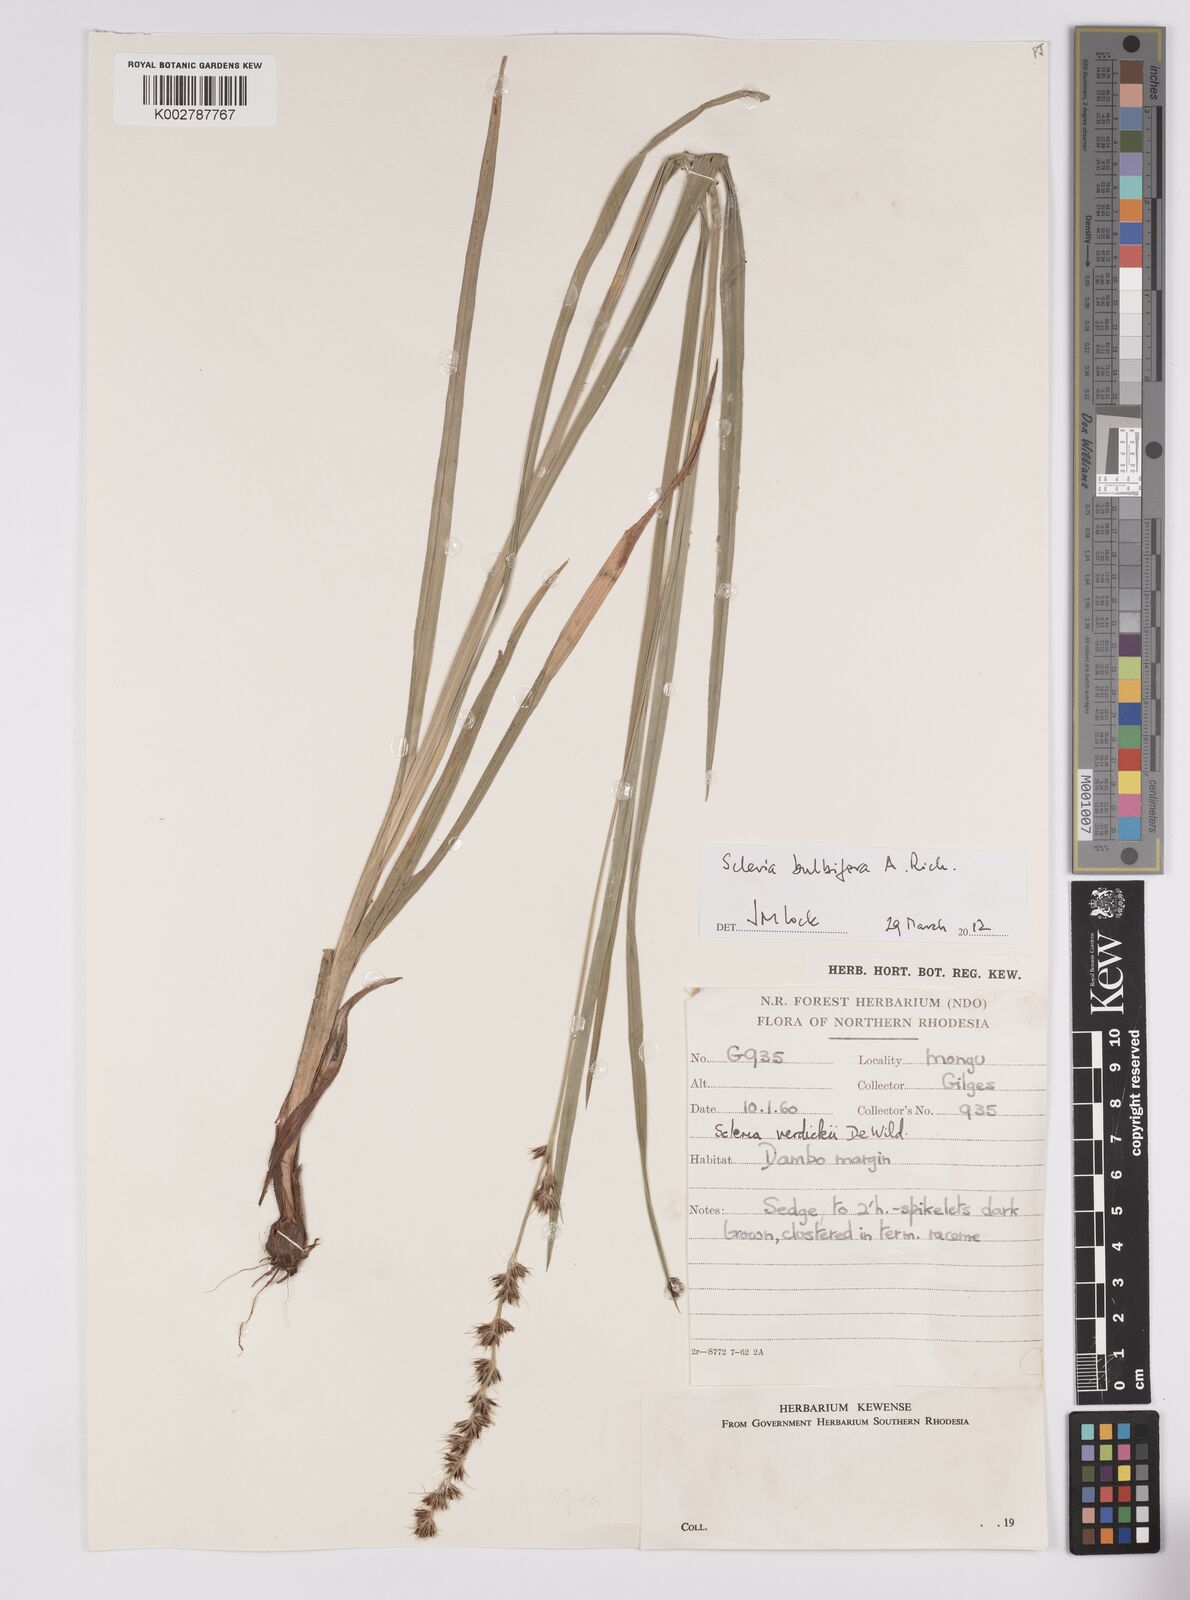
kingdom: Plantae
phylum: Tracheophyta
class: Liliopsida
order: Poales
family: Cyperaceae
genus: Scleria
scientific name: Scleria bulbifera
